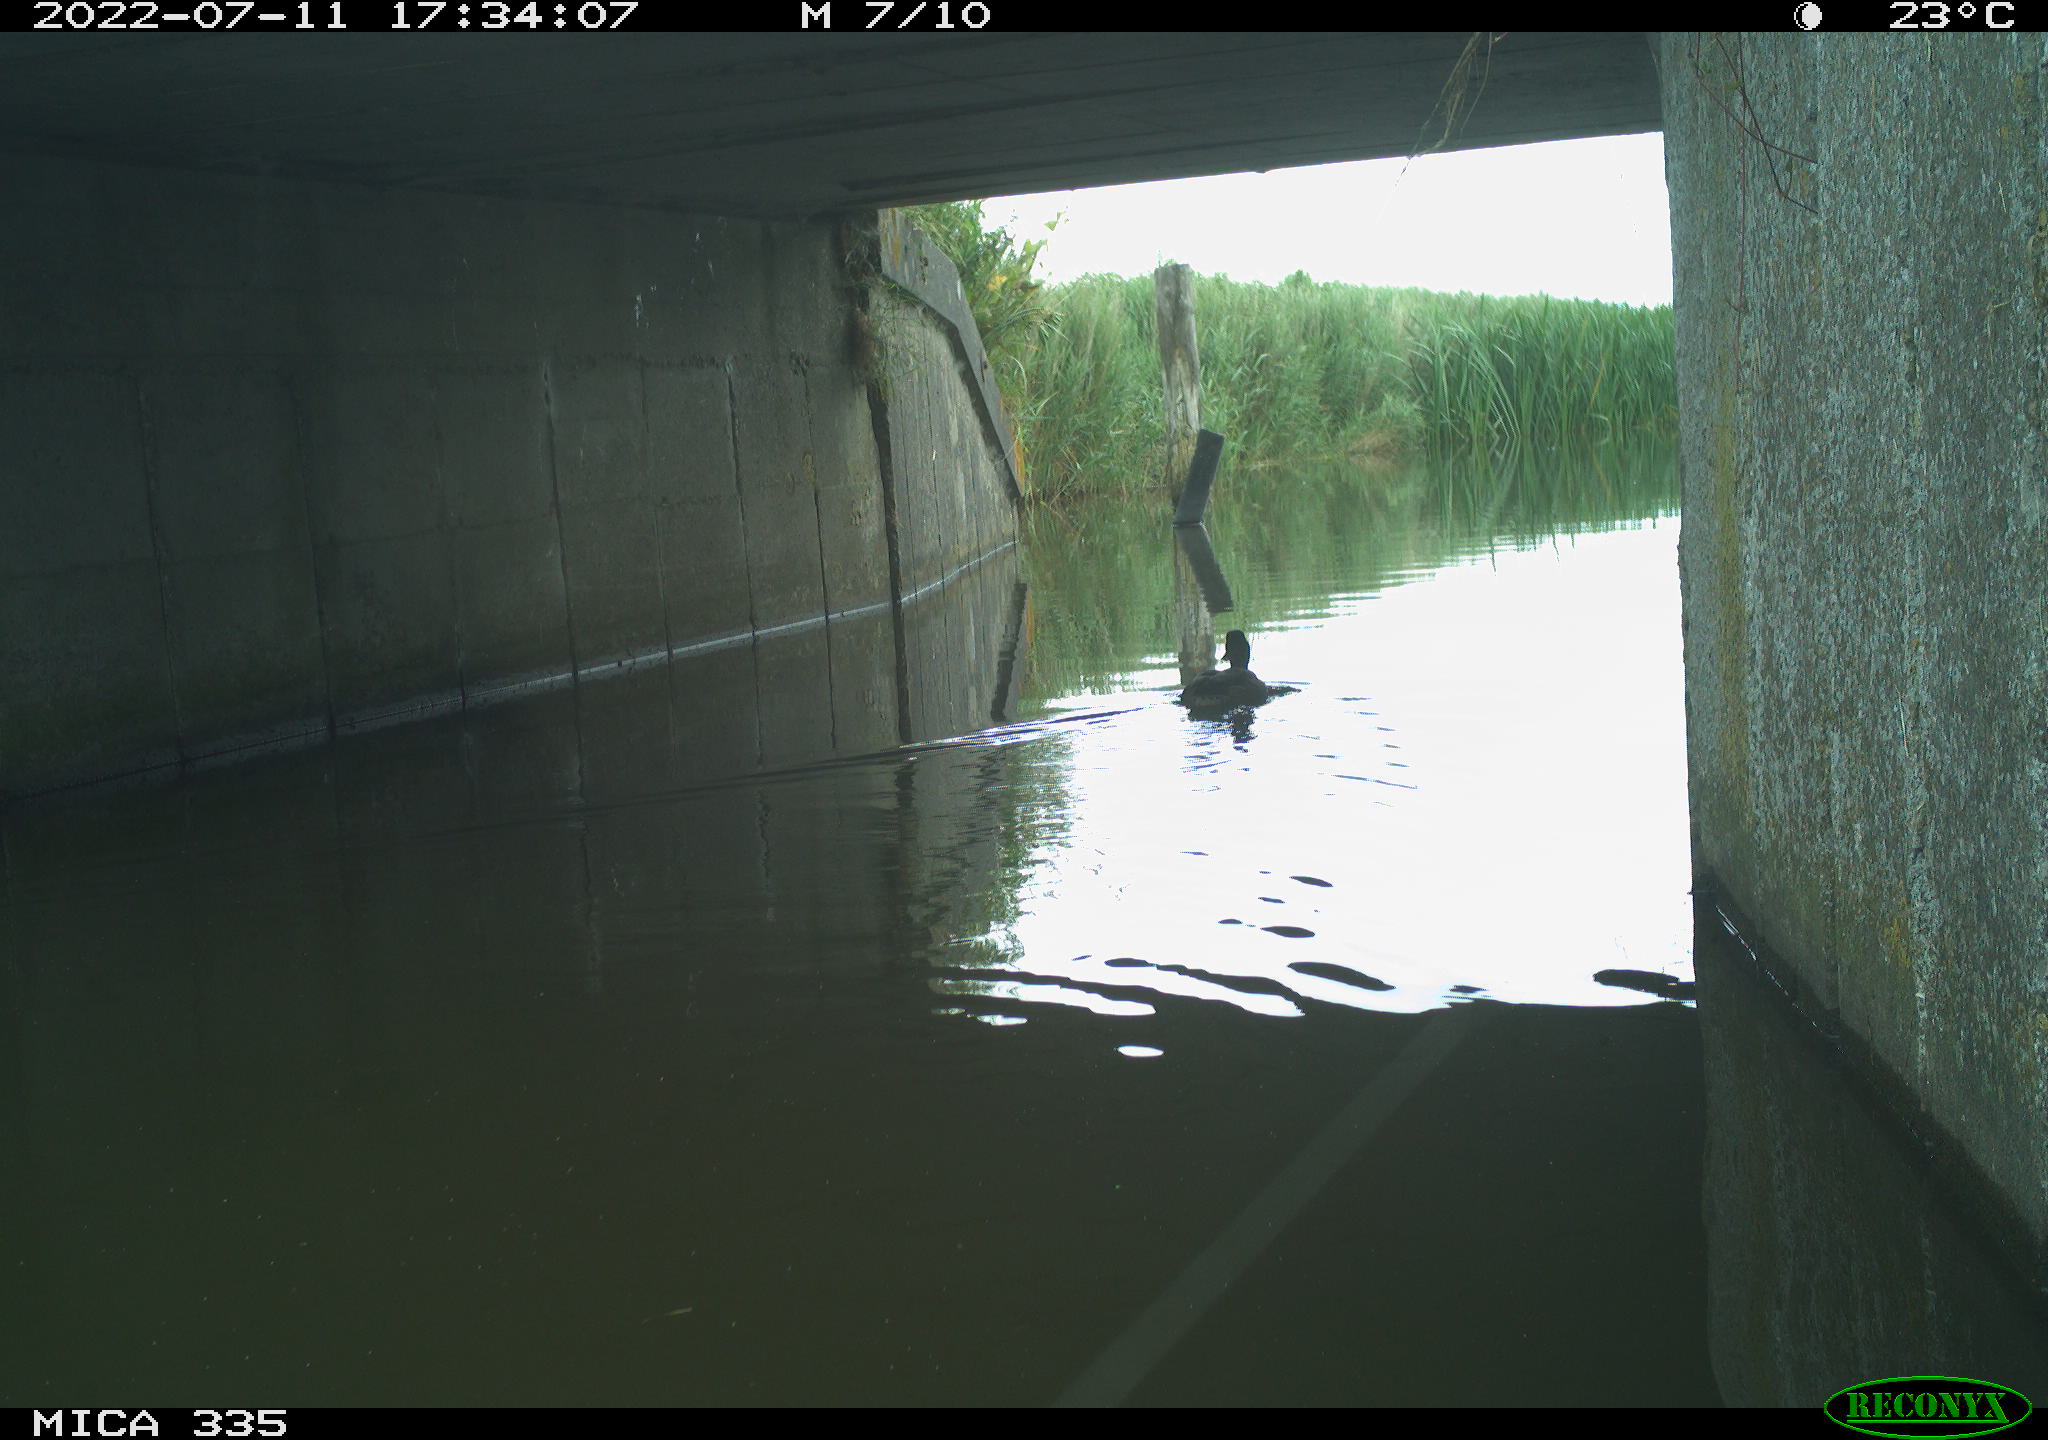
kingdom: Animalia
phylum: Chordata
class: Aves
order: Anseriformes
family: Anatidae
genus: Anas
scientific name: Anas platyrhynchos
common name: Mallard
